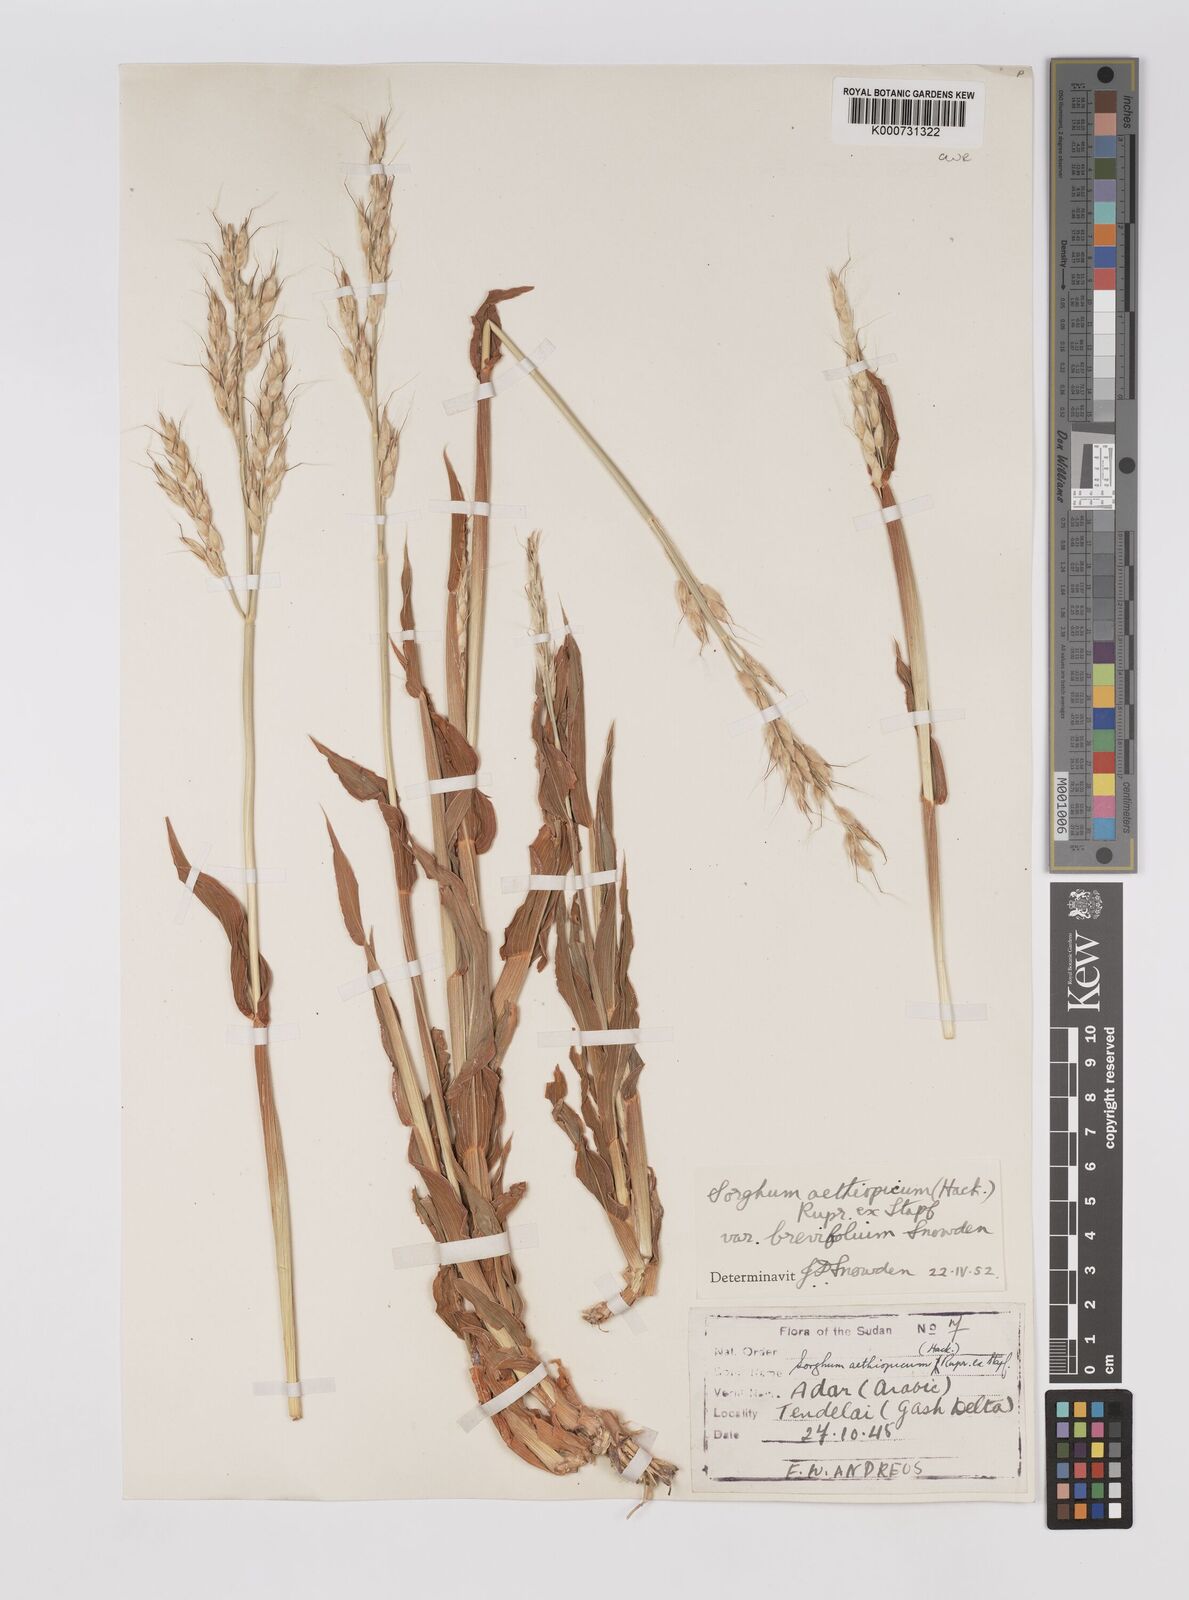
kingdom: Plantae
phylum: Tracheophyta
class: Liliopsida
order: Poales
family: Poaceae
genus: Sorghum
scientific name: Sorghum arundinaceum
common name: Sorghum
